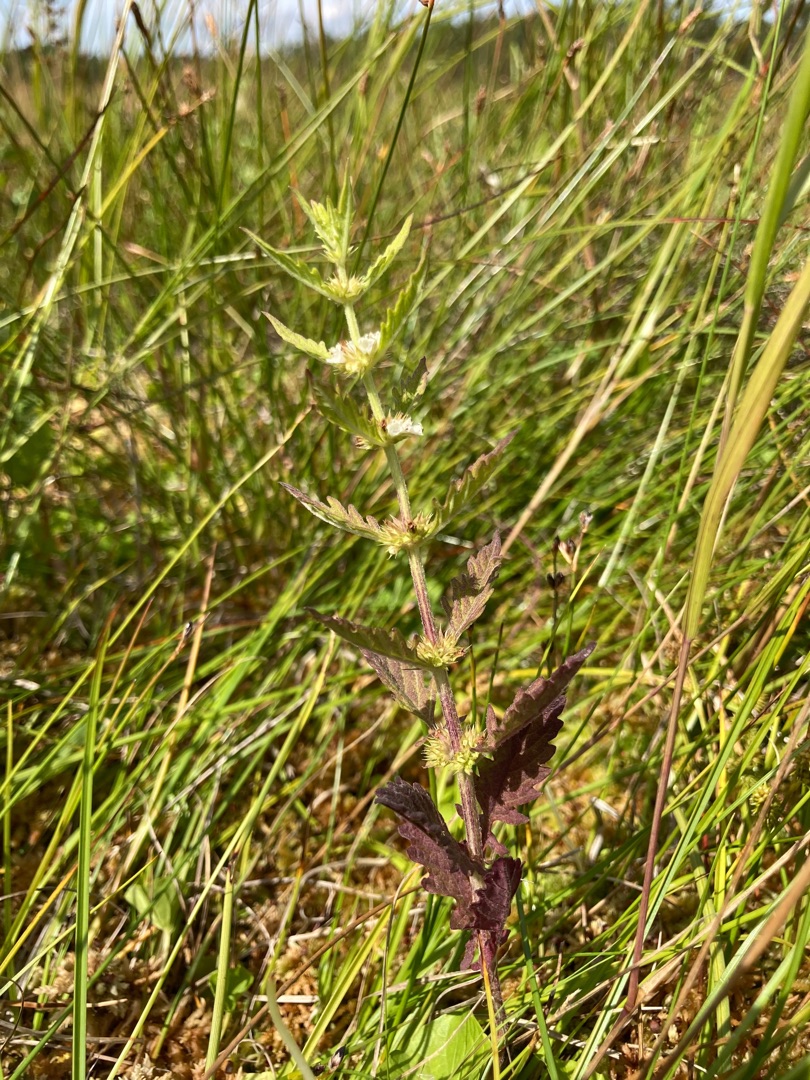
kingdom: Plantae
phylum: Tracheophyta
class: Magnoliopsida
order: Lamiales
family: Lamiaceae
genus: Lycopus
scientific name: Lycopus europaeus
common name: Sværtevæld
